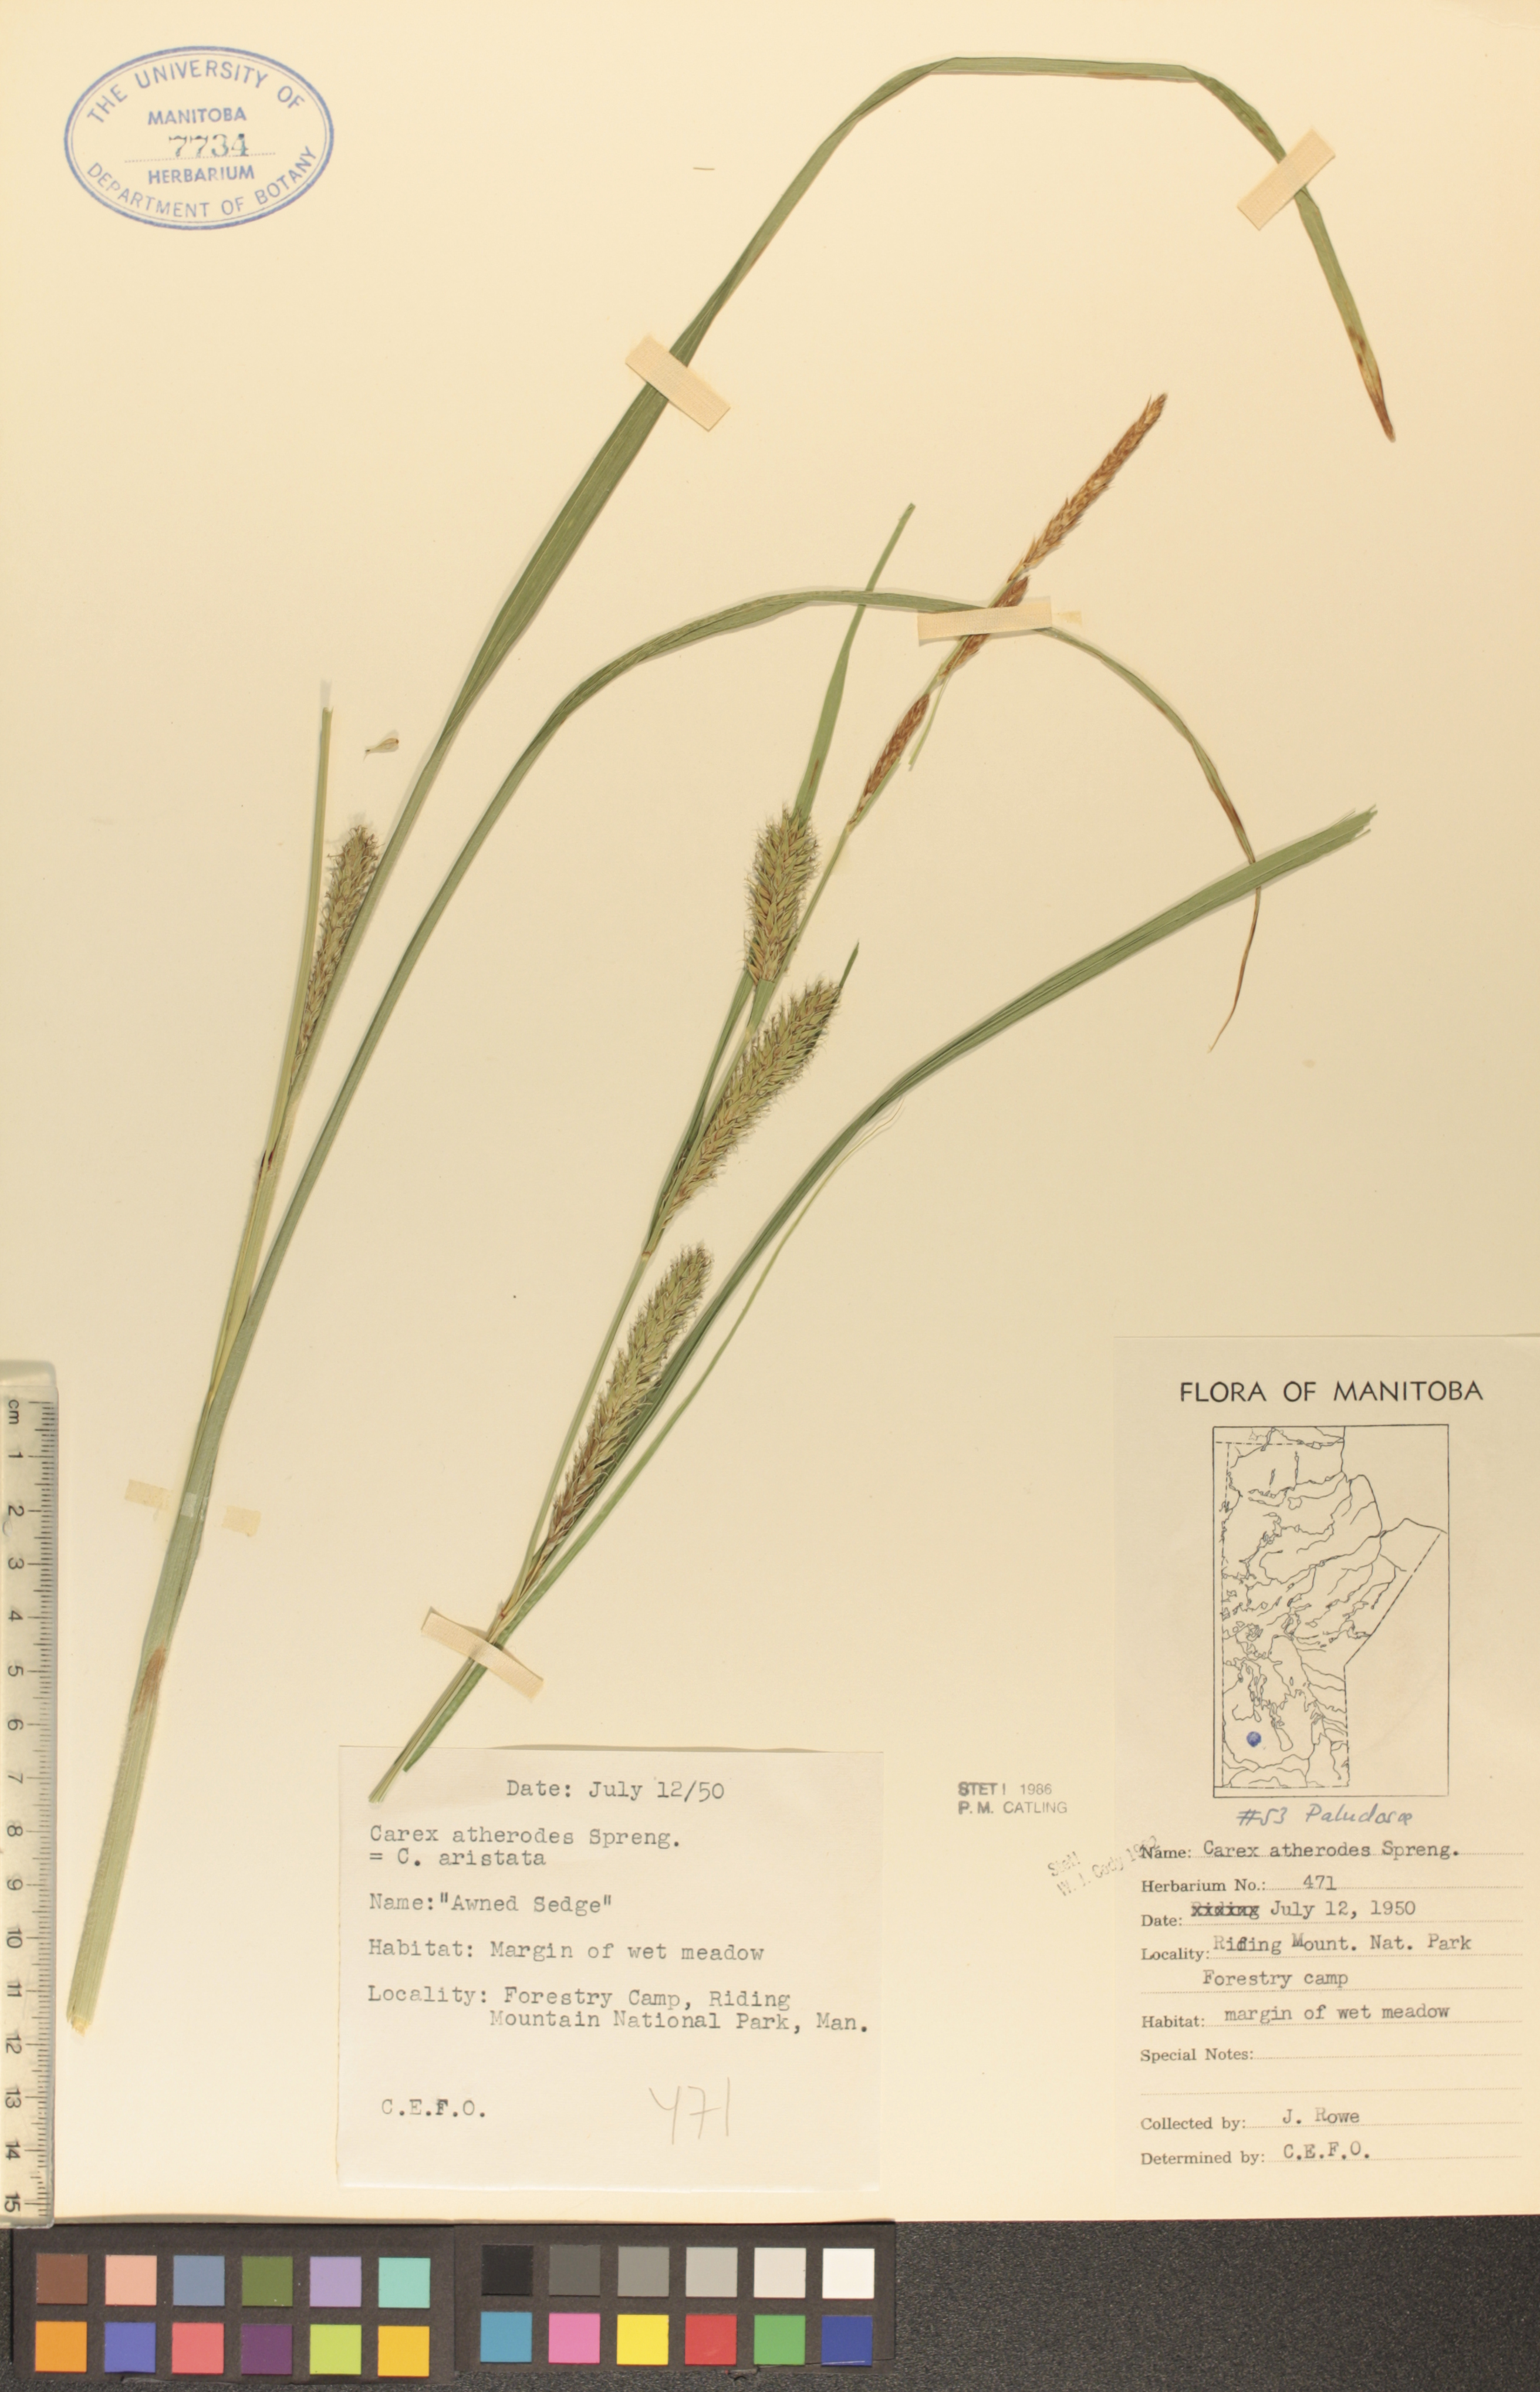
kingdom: Plantae
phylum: Tracheophyta
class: Liliopsida
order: Poales
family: Cyperaceae
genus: Carex
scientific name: Carex atherodes
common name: Wheat sedge
